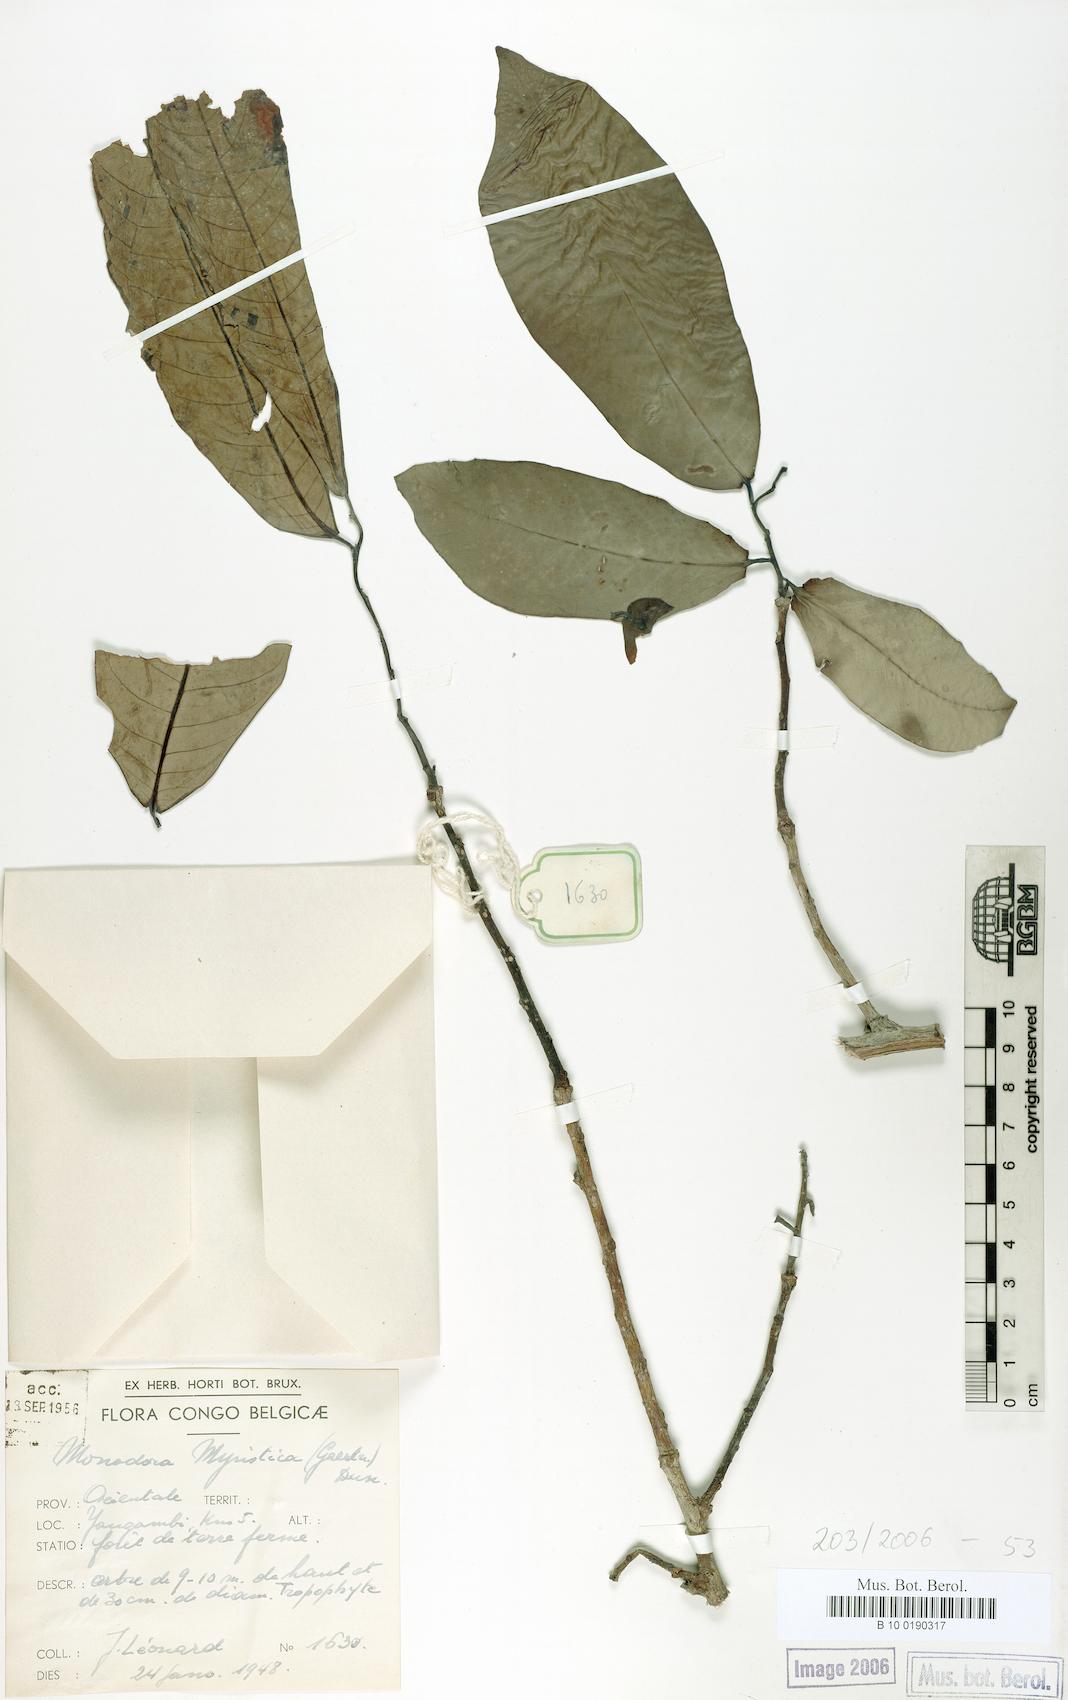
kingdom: Plantae
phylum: Tracheophyta
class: Magnoliopsida
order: Magnoliales
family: Annonaceae
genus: Monodora
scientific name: Monodora myristica
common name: African nutmeg
